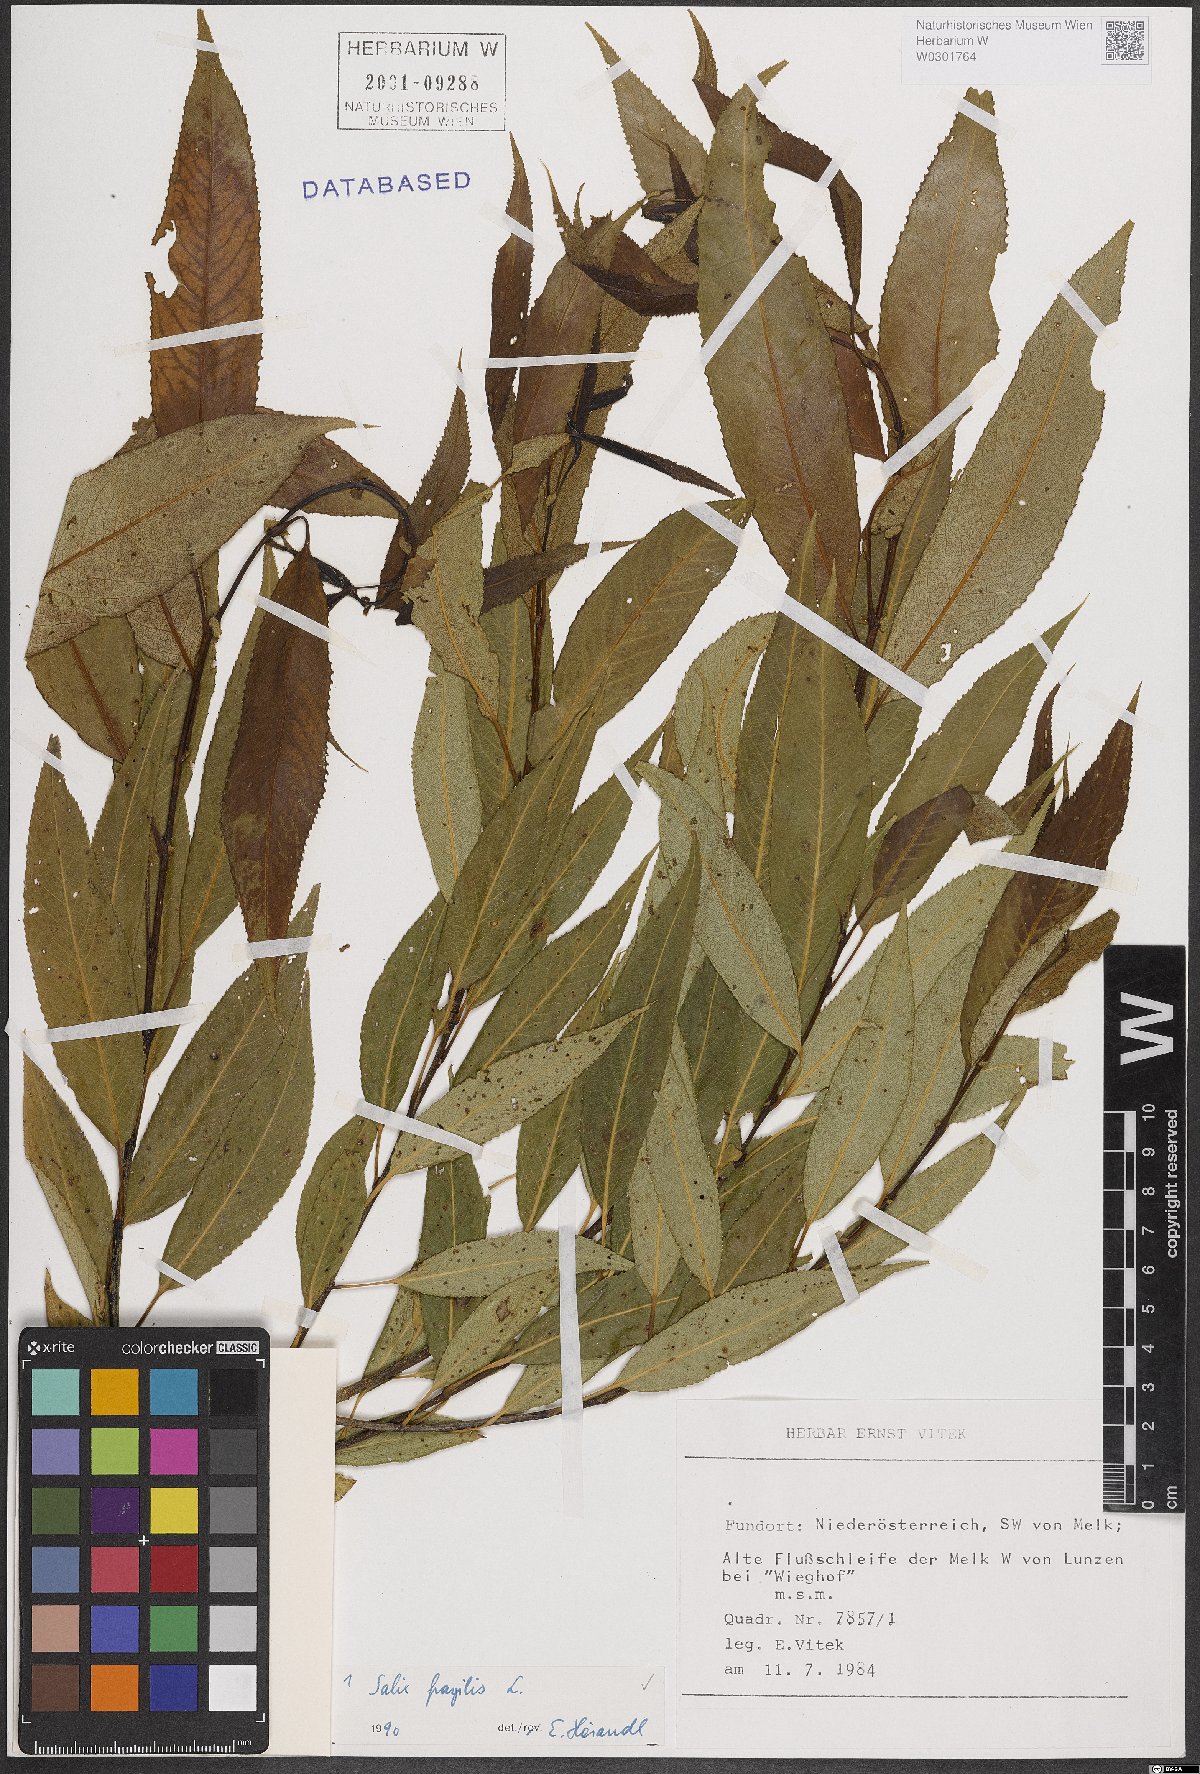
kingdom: Plantae
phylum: Tracheophyta
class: Magnoliopsida
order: Malpighiales
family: Salicaceae
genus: Salix
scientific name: Salix fragilis
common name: Crack willow
